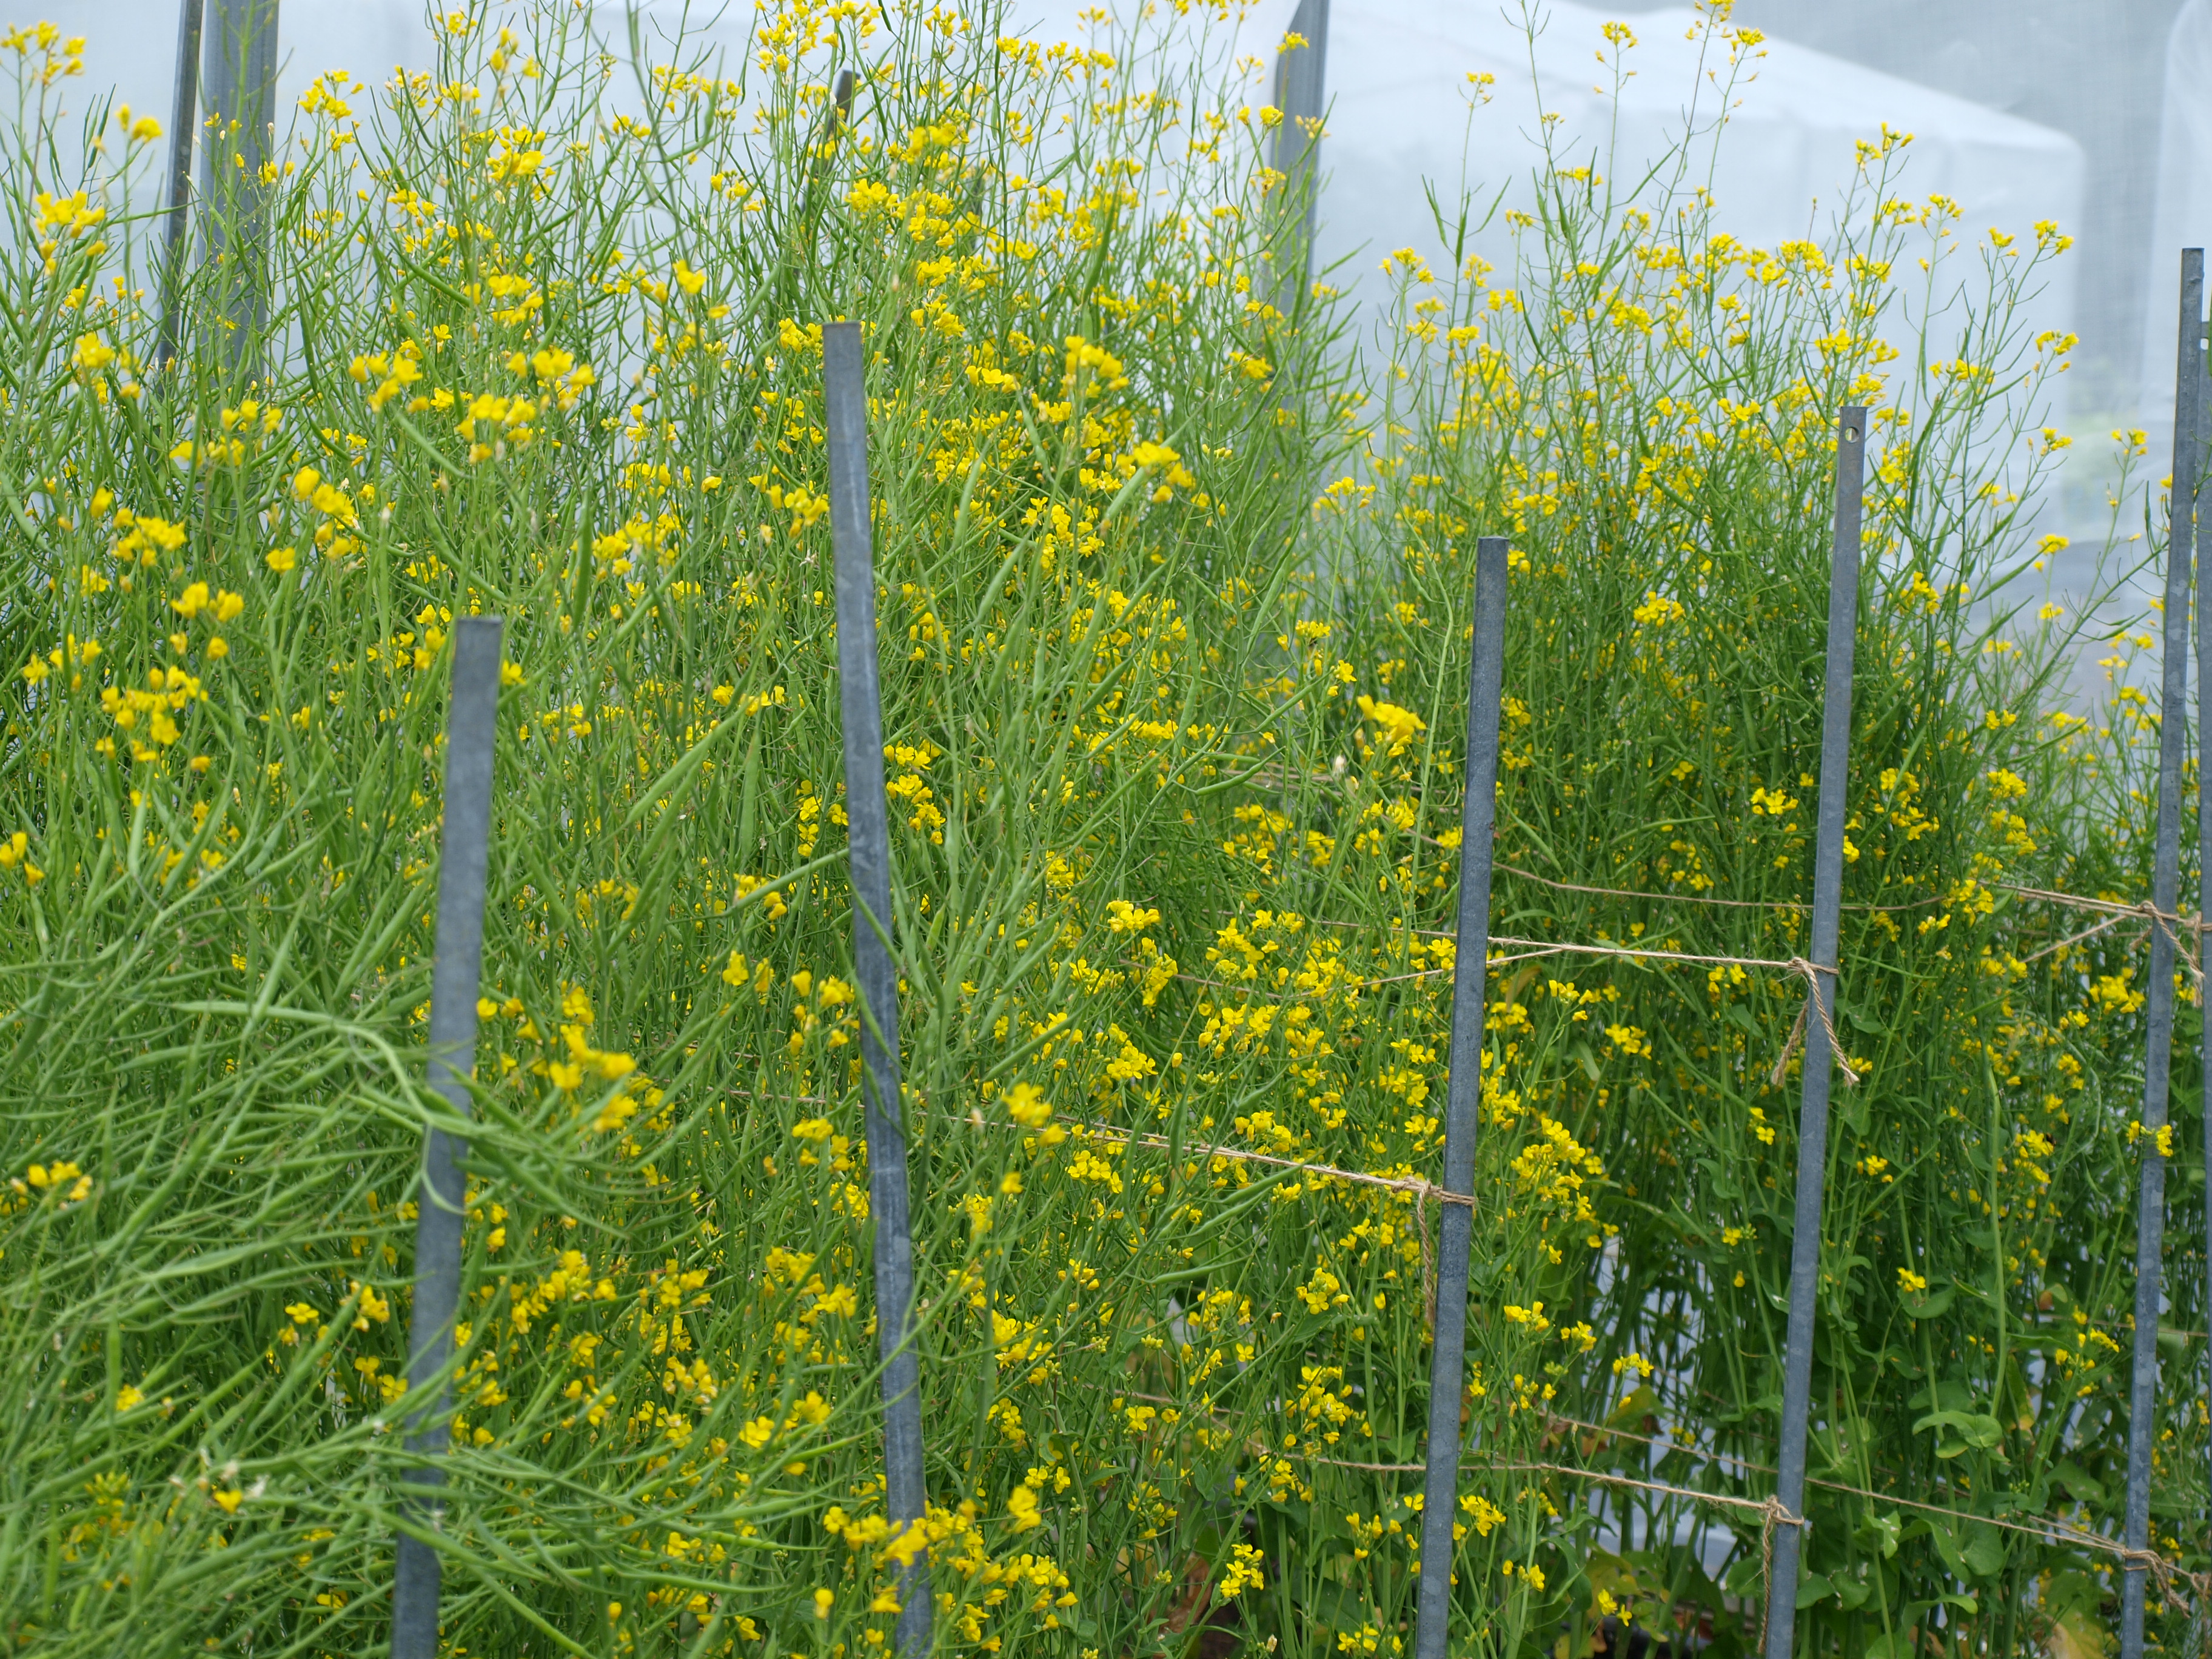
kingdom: Plantae
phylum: Tracheophyta
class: Magnoliopsida
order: Brassicales
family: Brassicaceae
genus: Brassica
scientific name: Brassica rapa
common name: Field mustard
